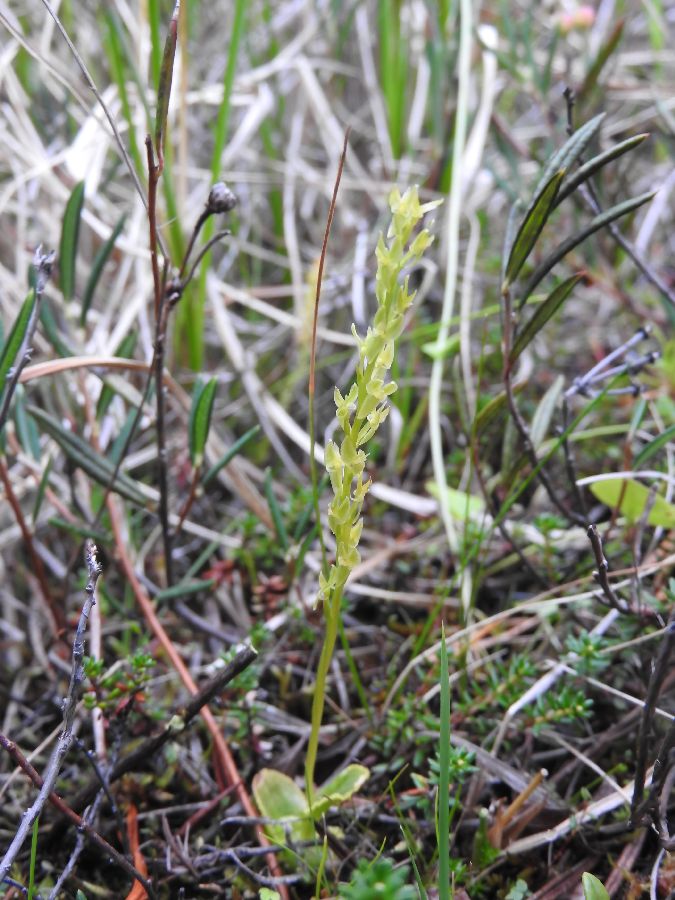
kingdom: Plantae
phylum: Tracheophyta
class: Liliopsida
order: Asparagales
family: Orchidaceae
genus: Hammarbya
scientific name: Hammarbya paludosa
